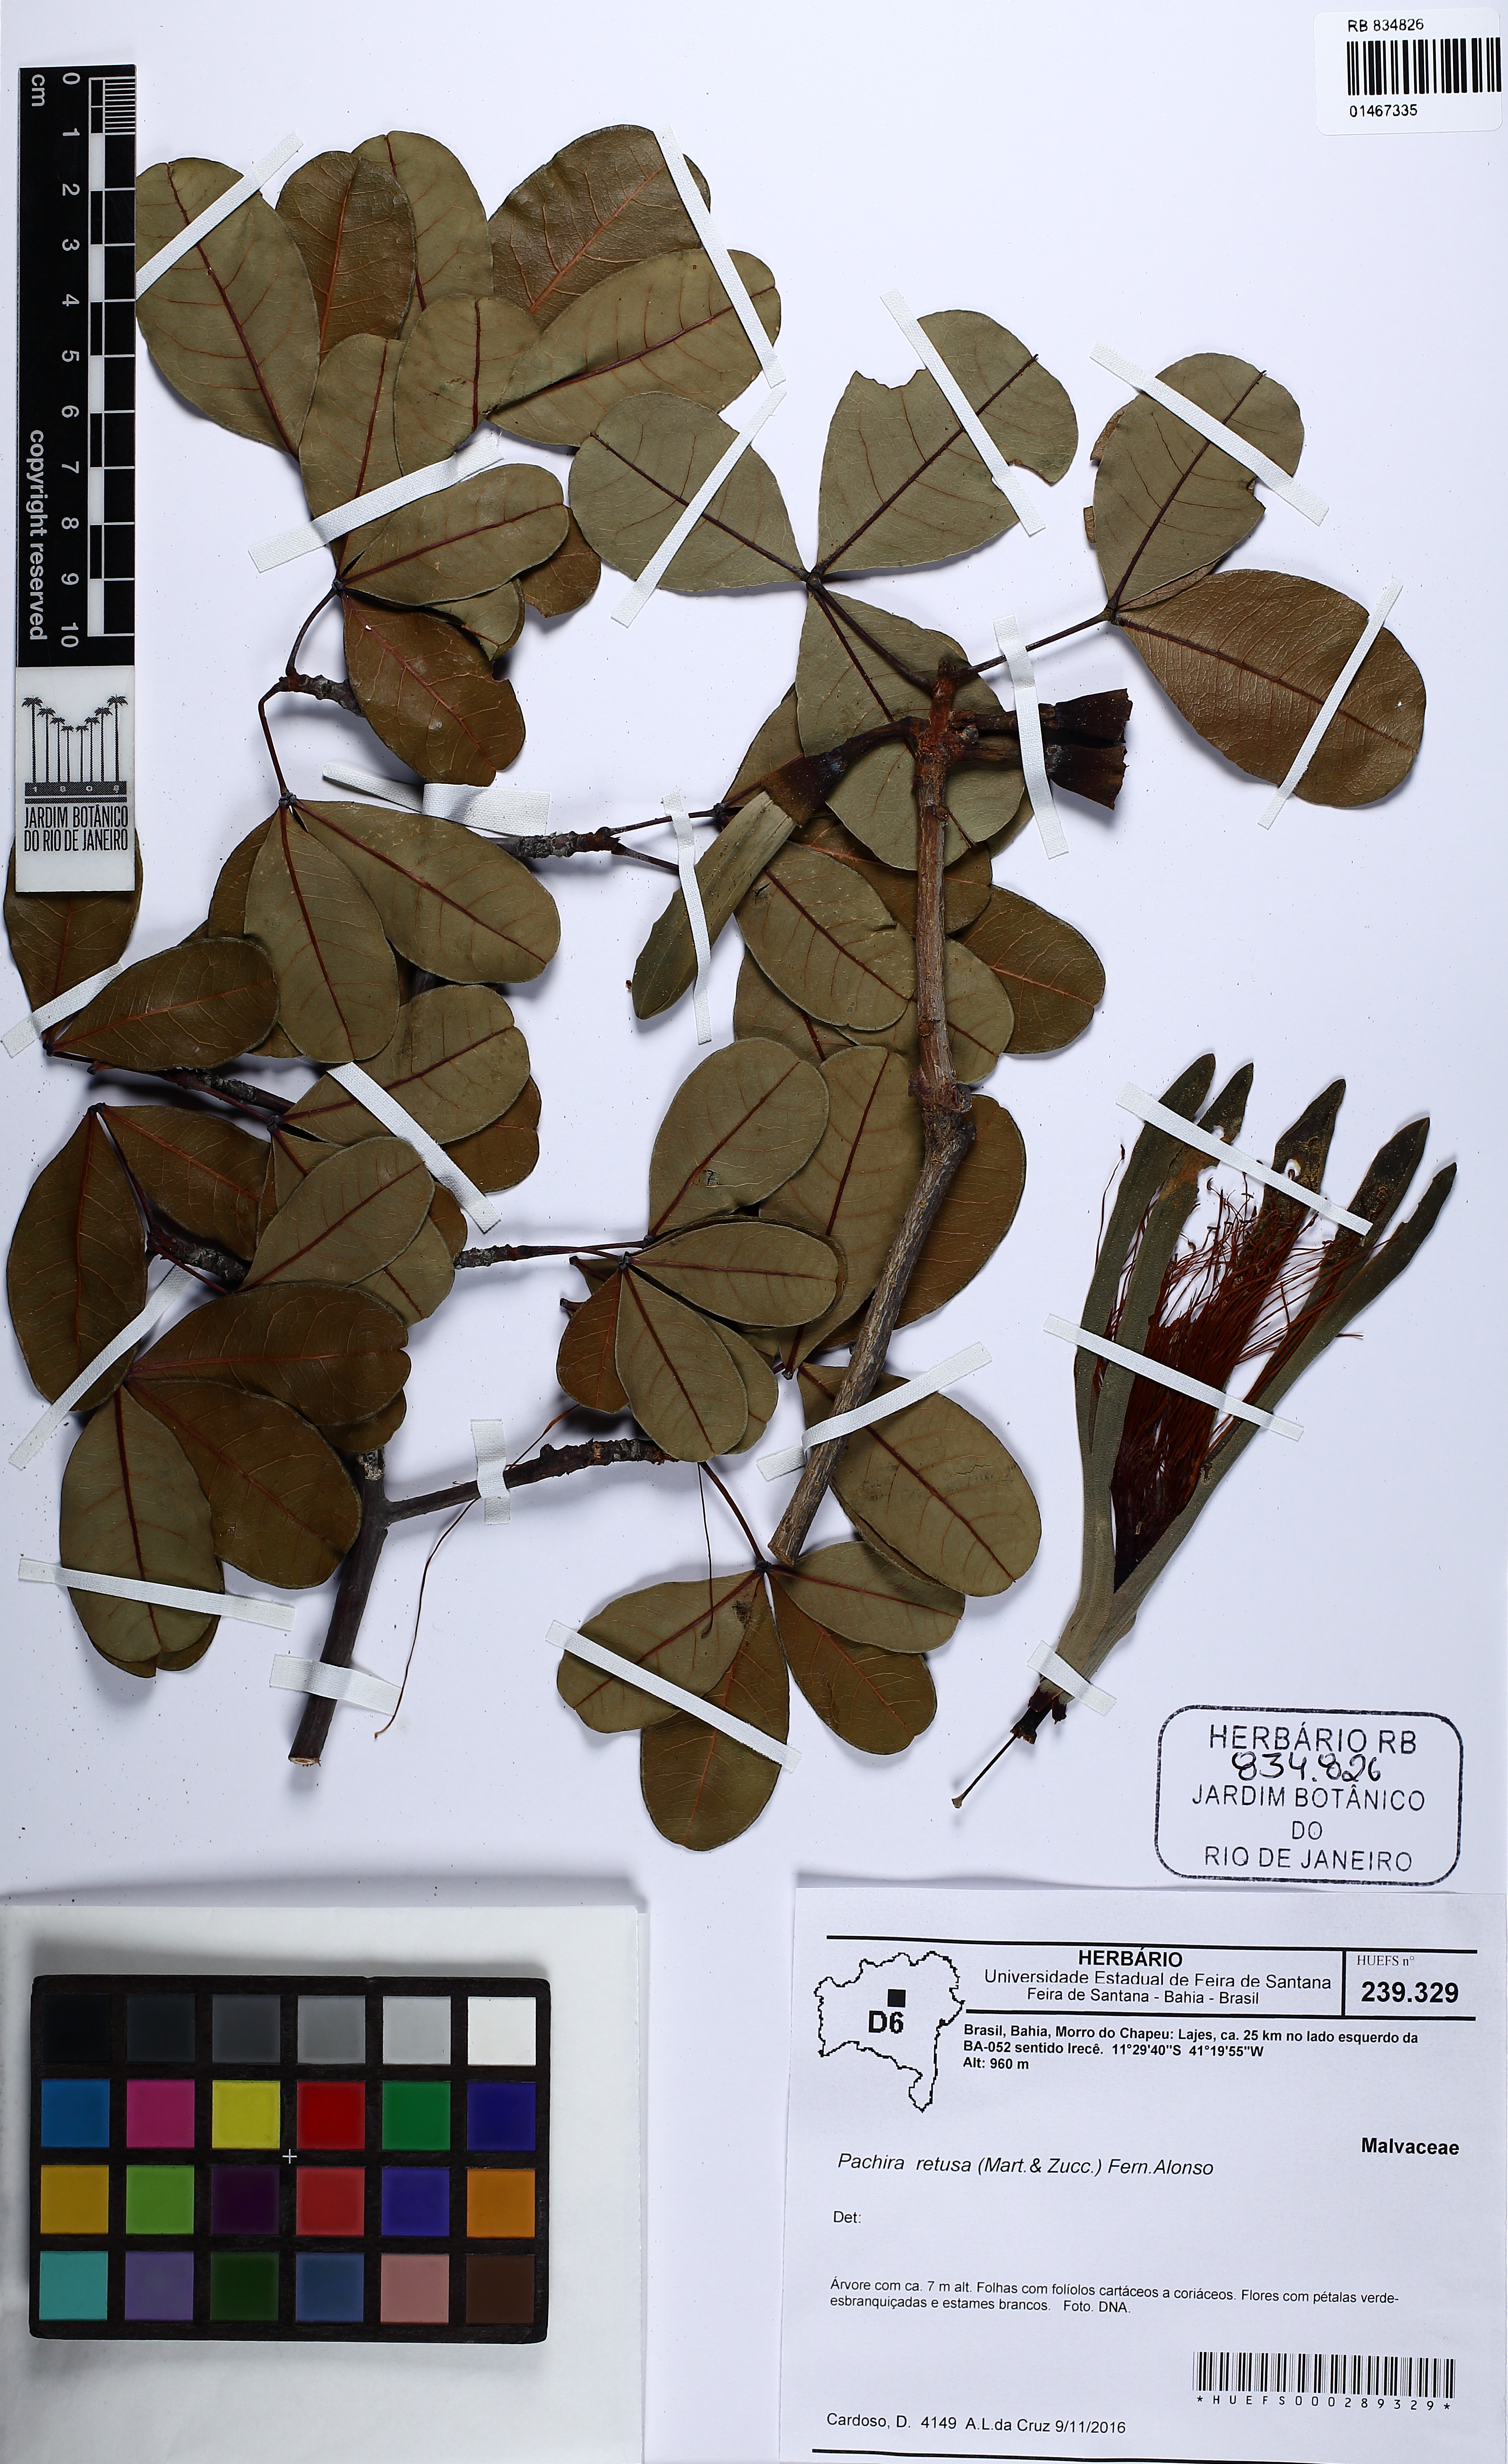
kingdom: Plantae
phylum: Tracheophyta
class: Magnoliopsida
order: Malvales
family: Malvaceae
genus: Pachira
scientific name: Pachira retusa
